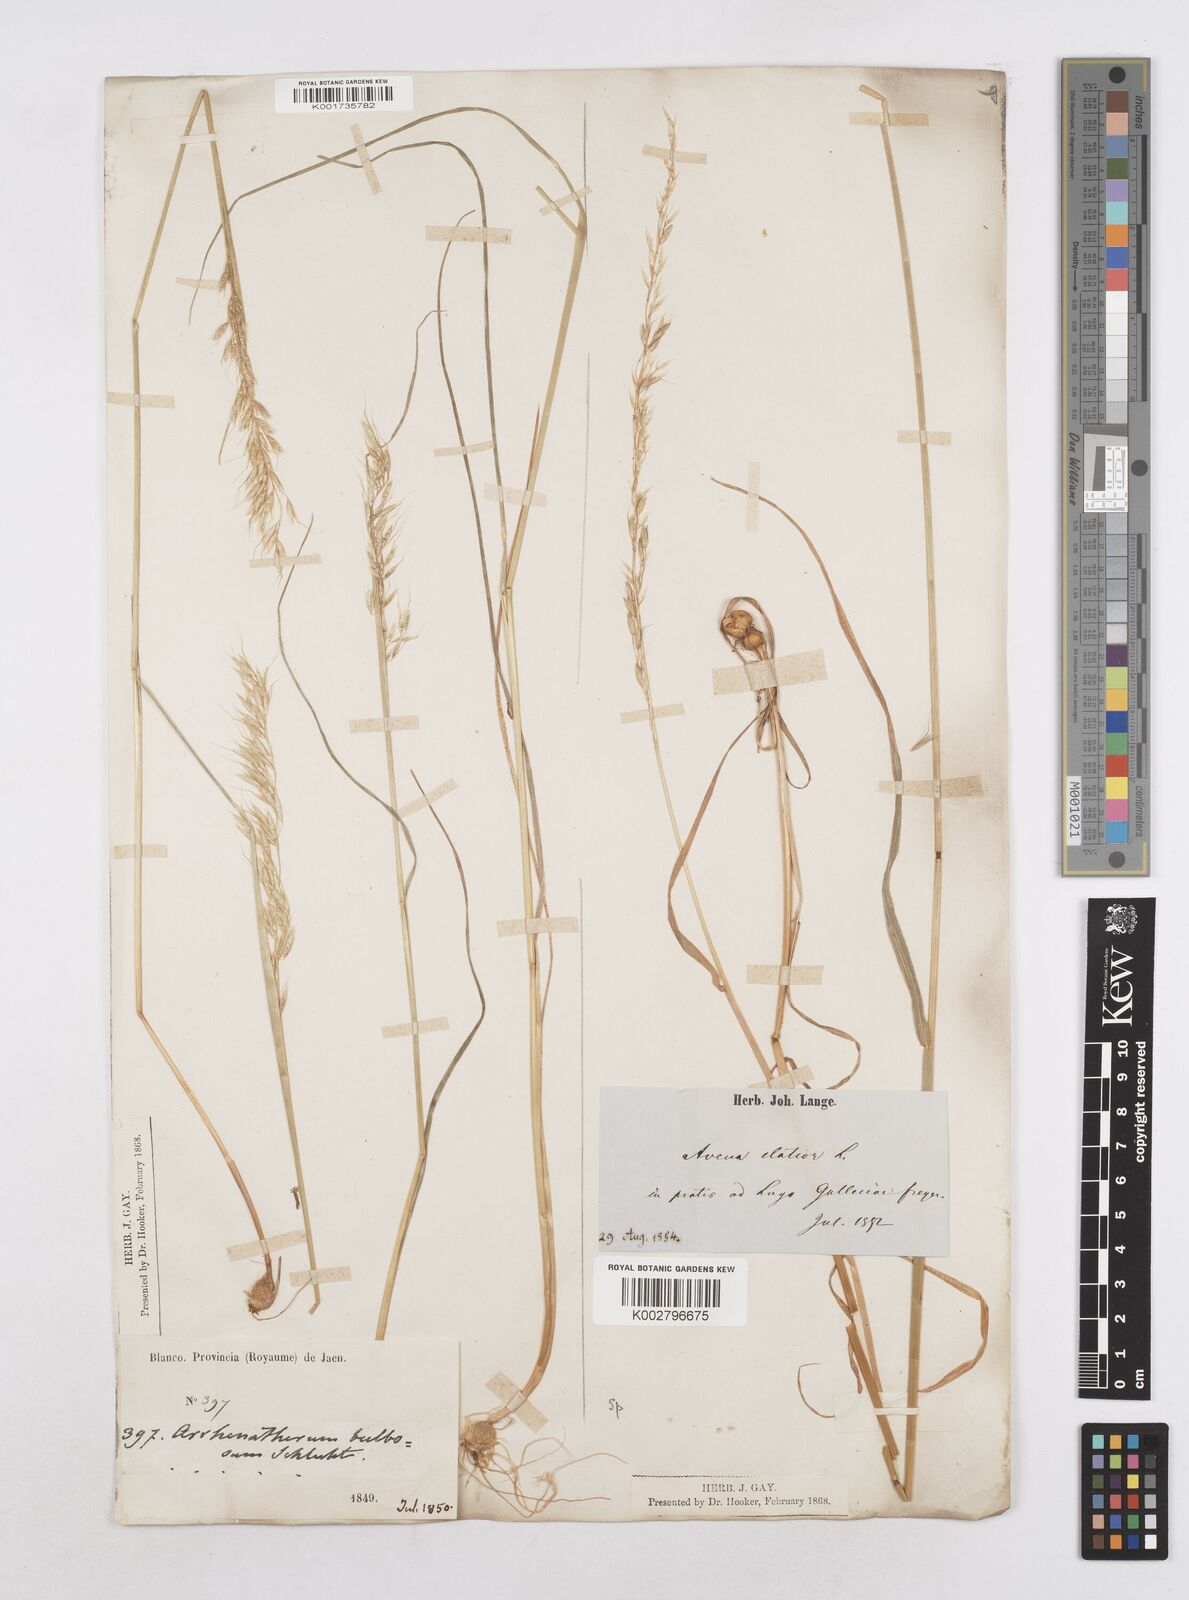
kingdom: Plantae
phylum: Tracheophyta
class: Liliopsida
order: Poales
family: Poaceae
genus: Arrhenatherum
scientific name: Arrhenatherum elatius
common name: Tall oatgrass
